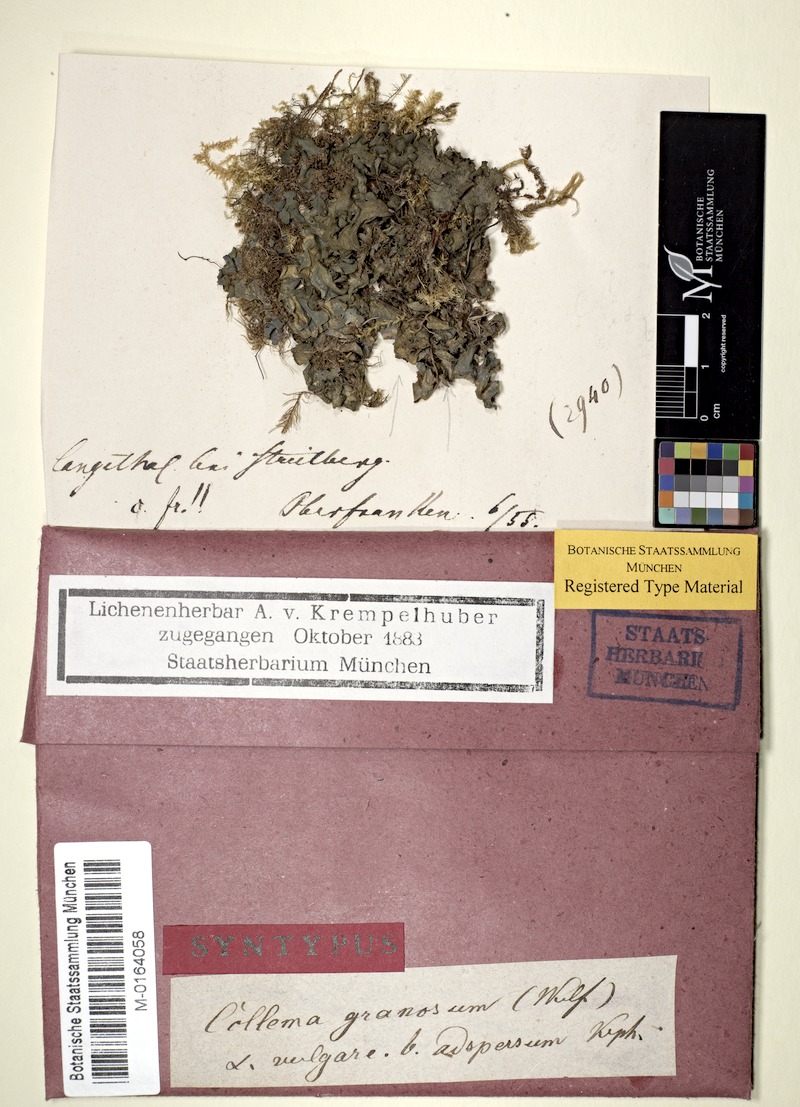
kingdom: Fungi
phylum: Ascomycota
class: Lecanoromycetes
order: Peltigerales
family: Collemataceae
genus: Lathagrium
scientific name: Lathagrium auriforme
